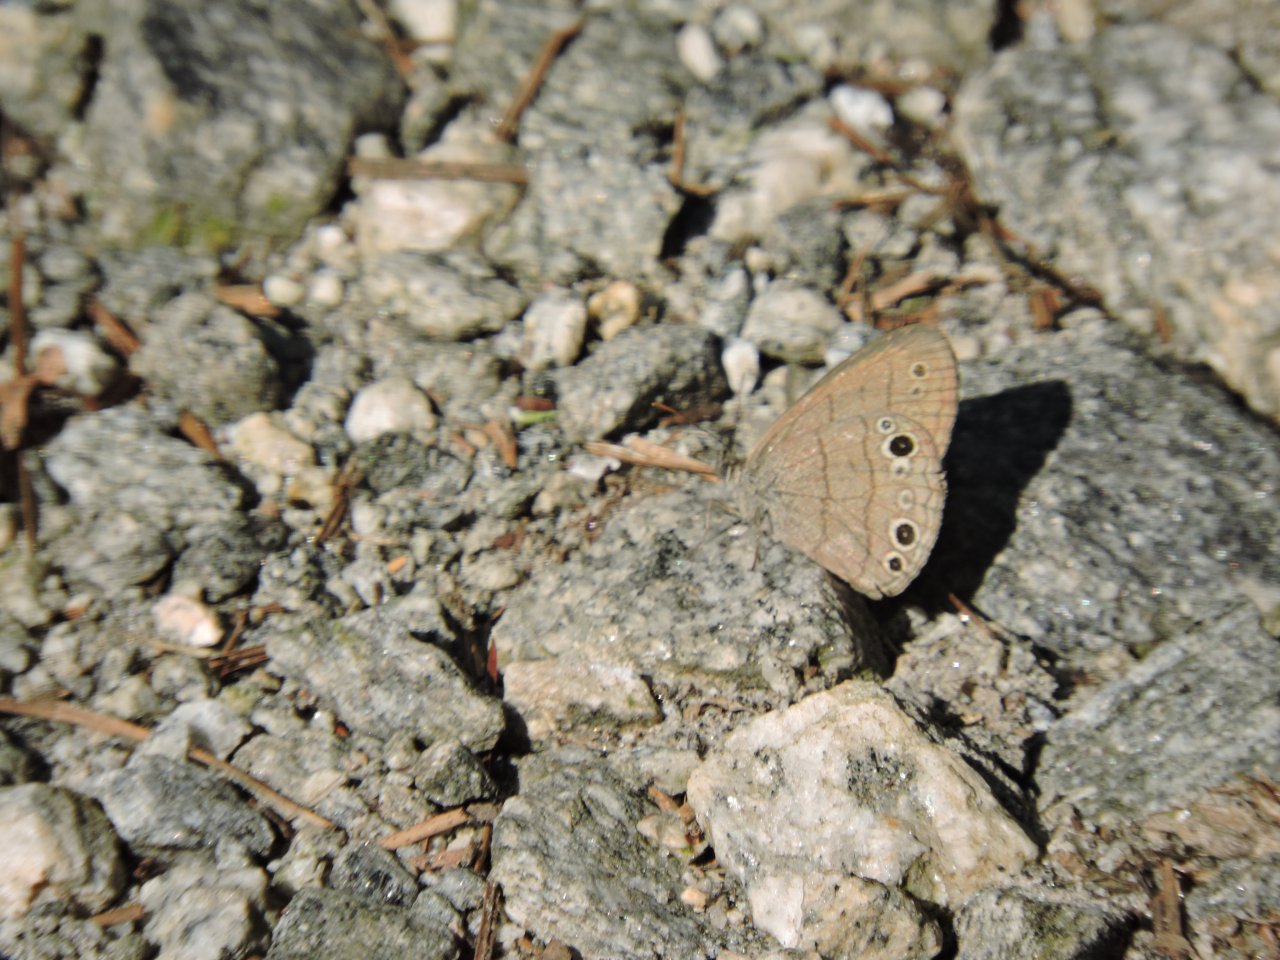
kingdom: Animalia
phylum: Arthropoda
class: Insecta
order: Lepidoptera
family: Nymphalidae
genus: Hermeuptychia
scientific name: Hermeuptychia hermes
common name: Carolina Satyr
